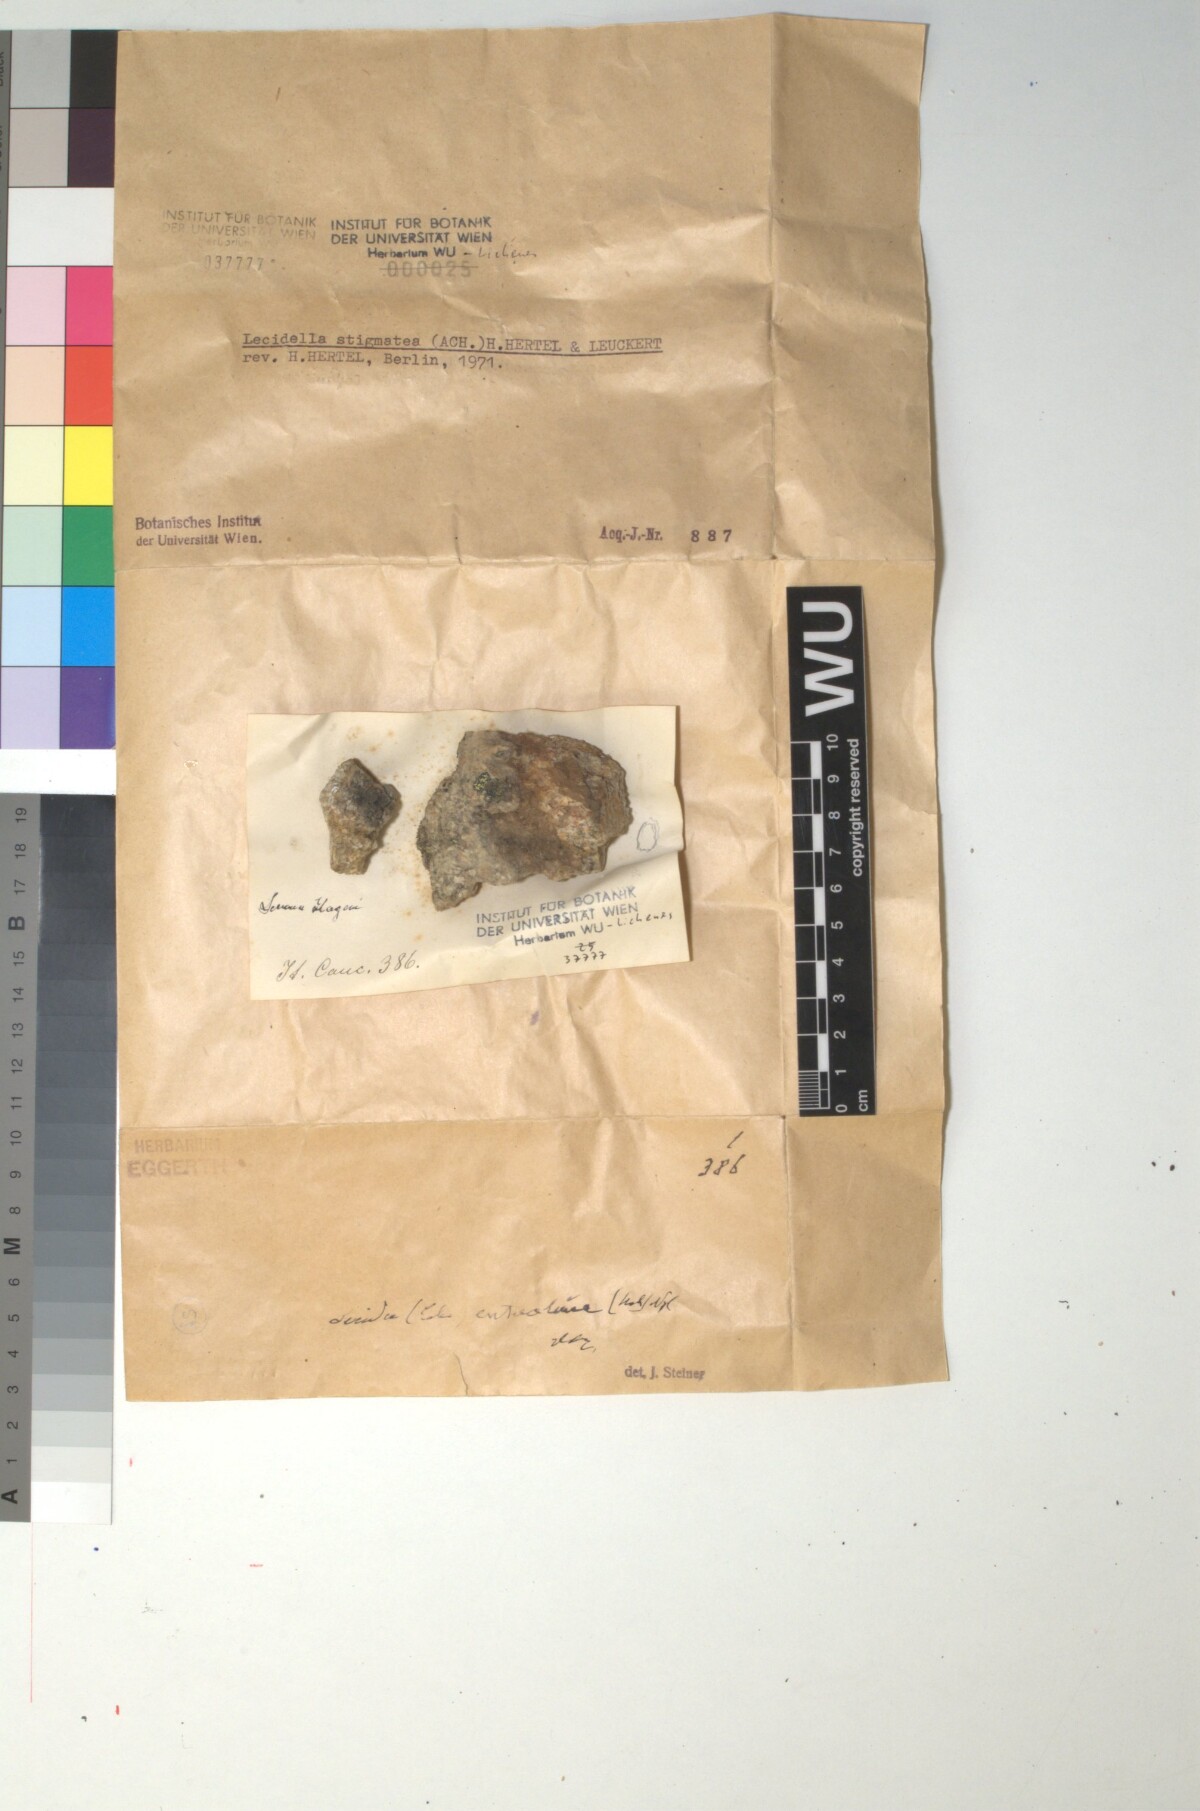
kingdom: Fungi
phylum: Ascomycota
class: Lecanoromycetes
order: Lecanorales
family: Lecanoraceae
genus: Lecidella
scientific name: Lecidella stigmatea
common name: Limestone disc lichen
